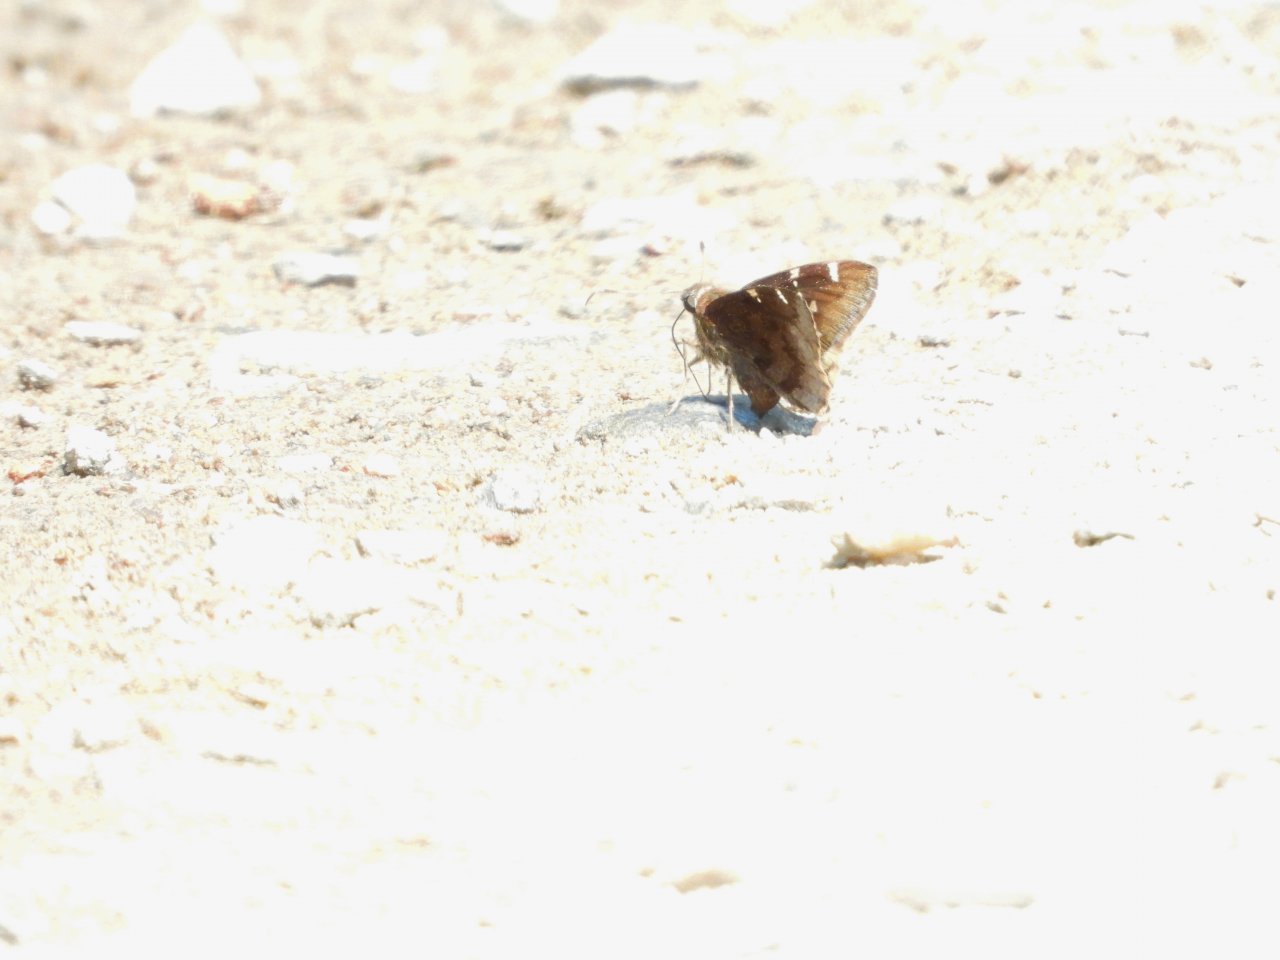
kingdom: Animalia
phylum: Arthropoda
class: Insecta
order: Lepidoptera
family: Hesperiidae
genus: Autochton
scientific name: Autochton
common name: Southern Cloudywing
